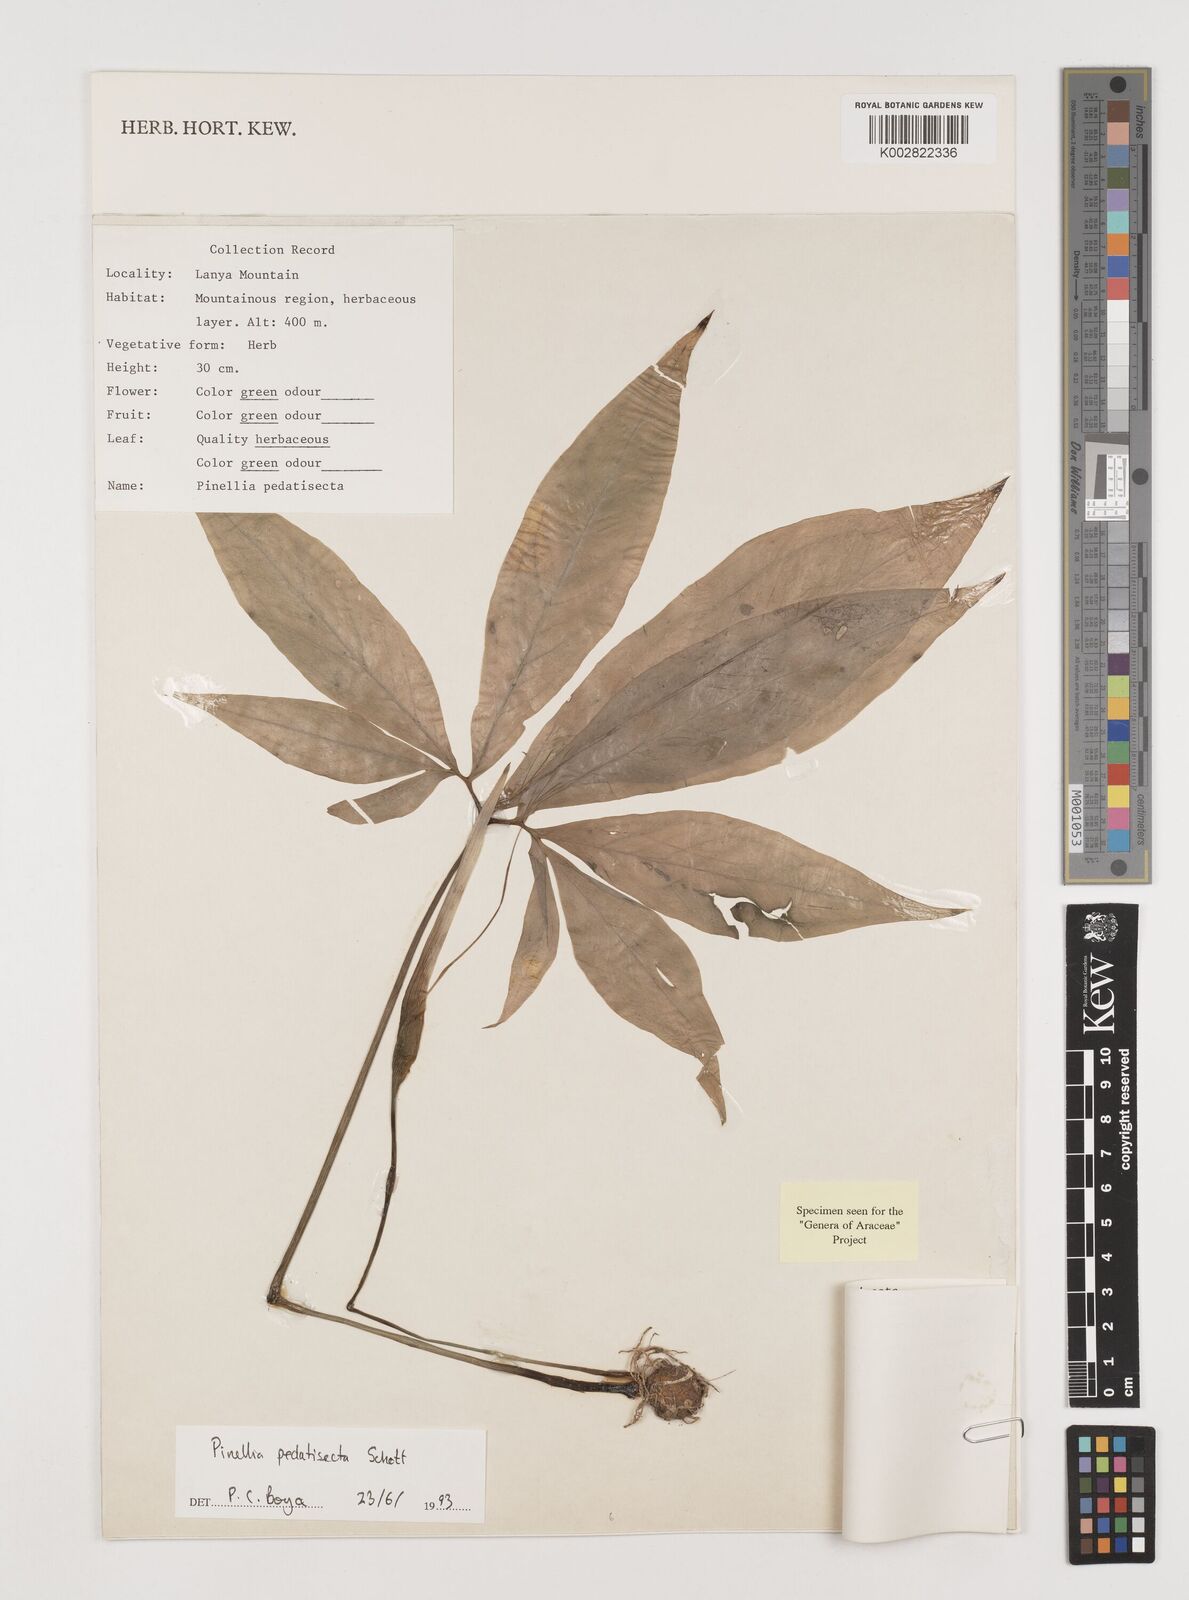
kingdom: Plantae
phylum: Tracheophyta
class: Liliopsida
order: Alismatales
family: Araceae
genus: Pinellia
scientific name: Pinellia pedatisecta
